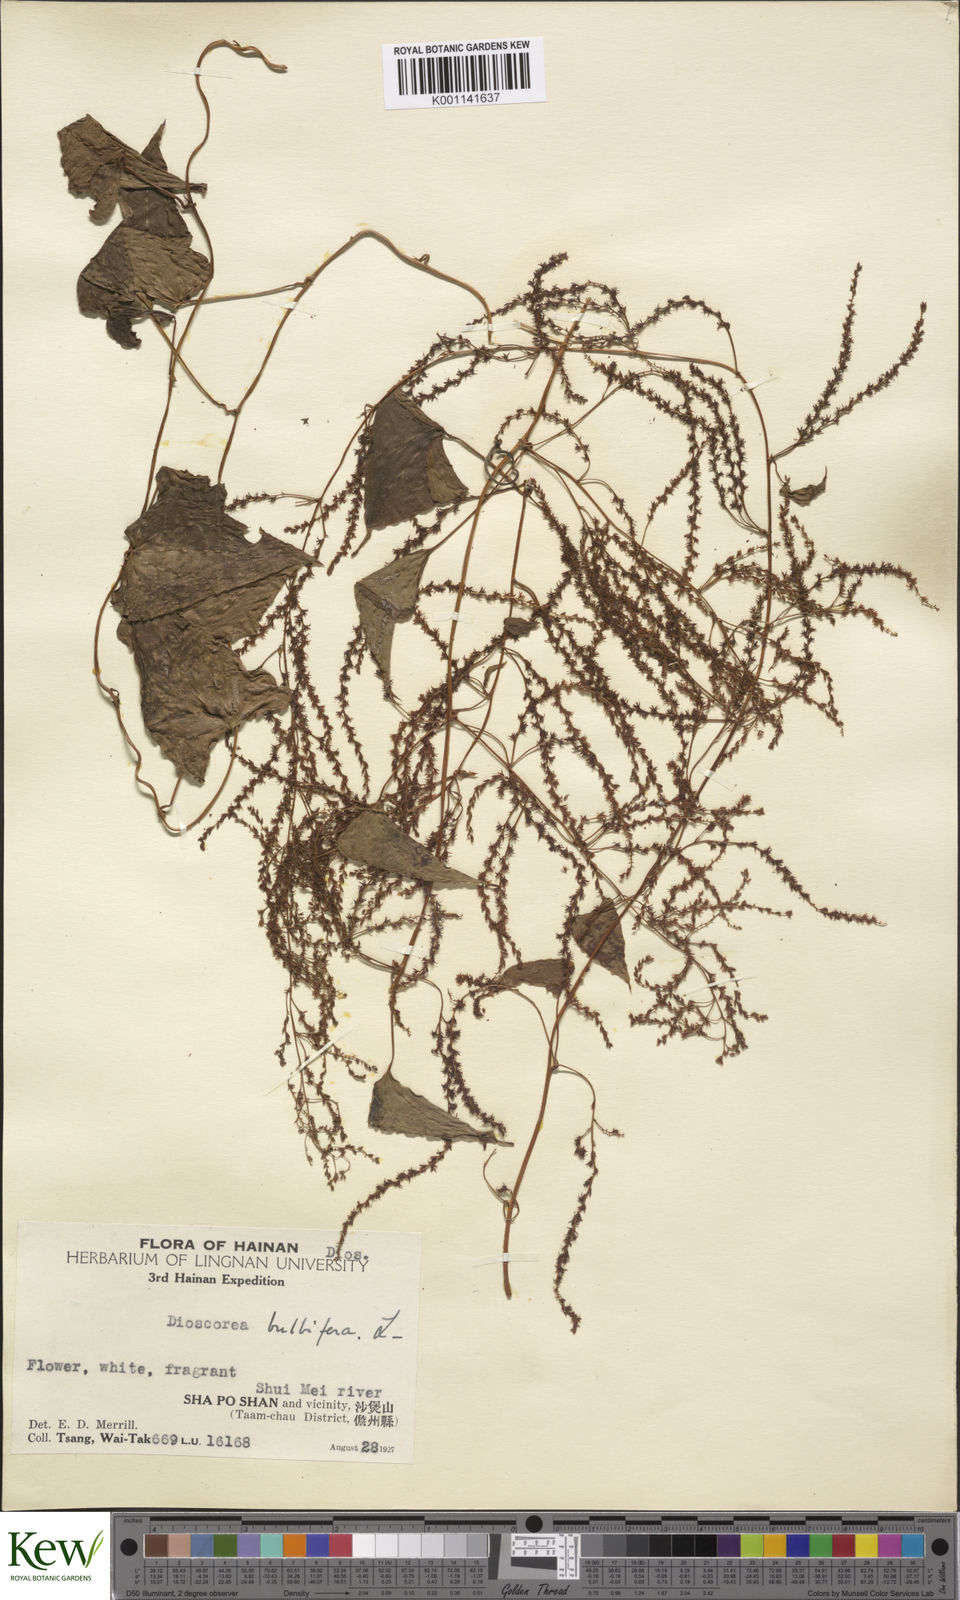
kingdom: Plantae
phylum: Tracheophyta
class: Liliopsida
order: Dioscoreales
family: Dioscoreaceae
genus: Dioscorea
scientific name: Dioscorea bulbifera
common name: Air yam
